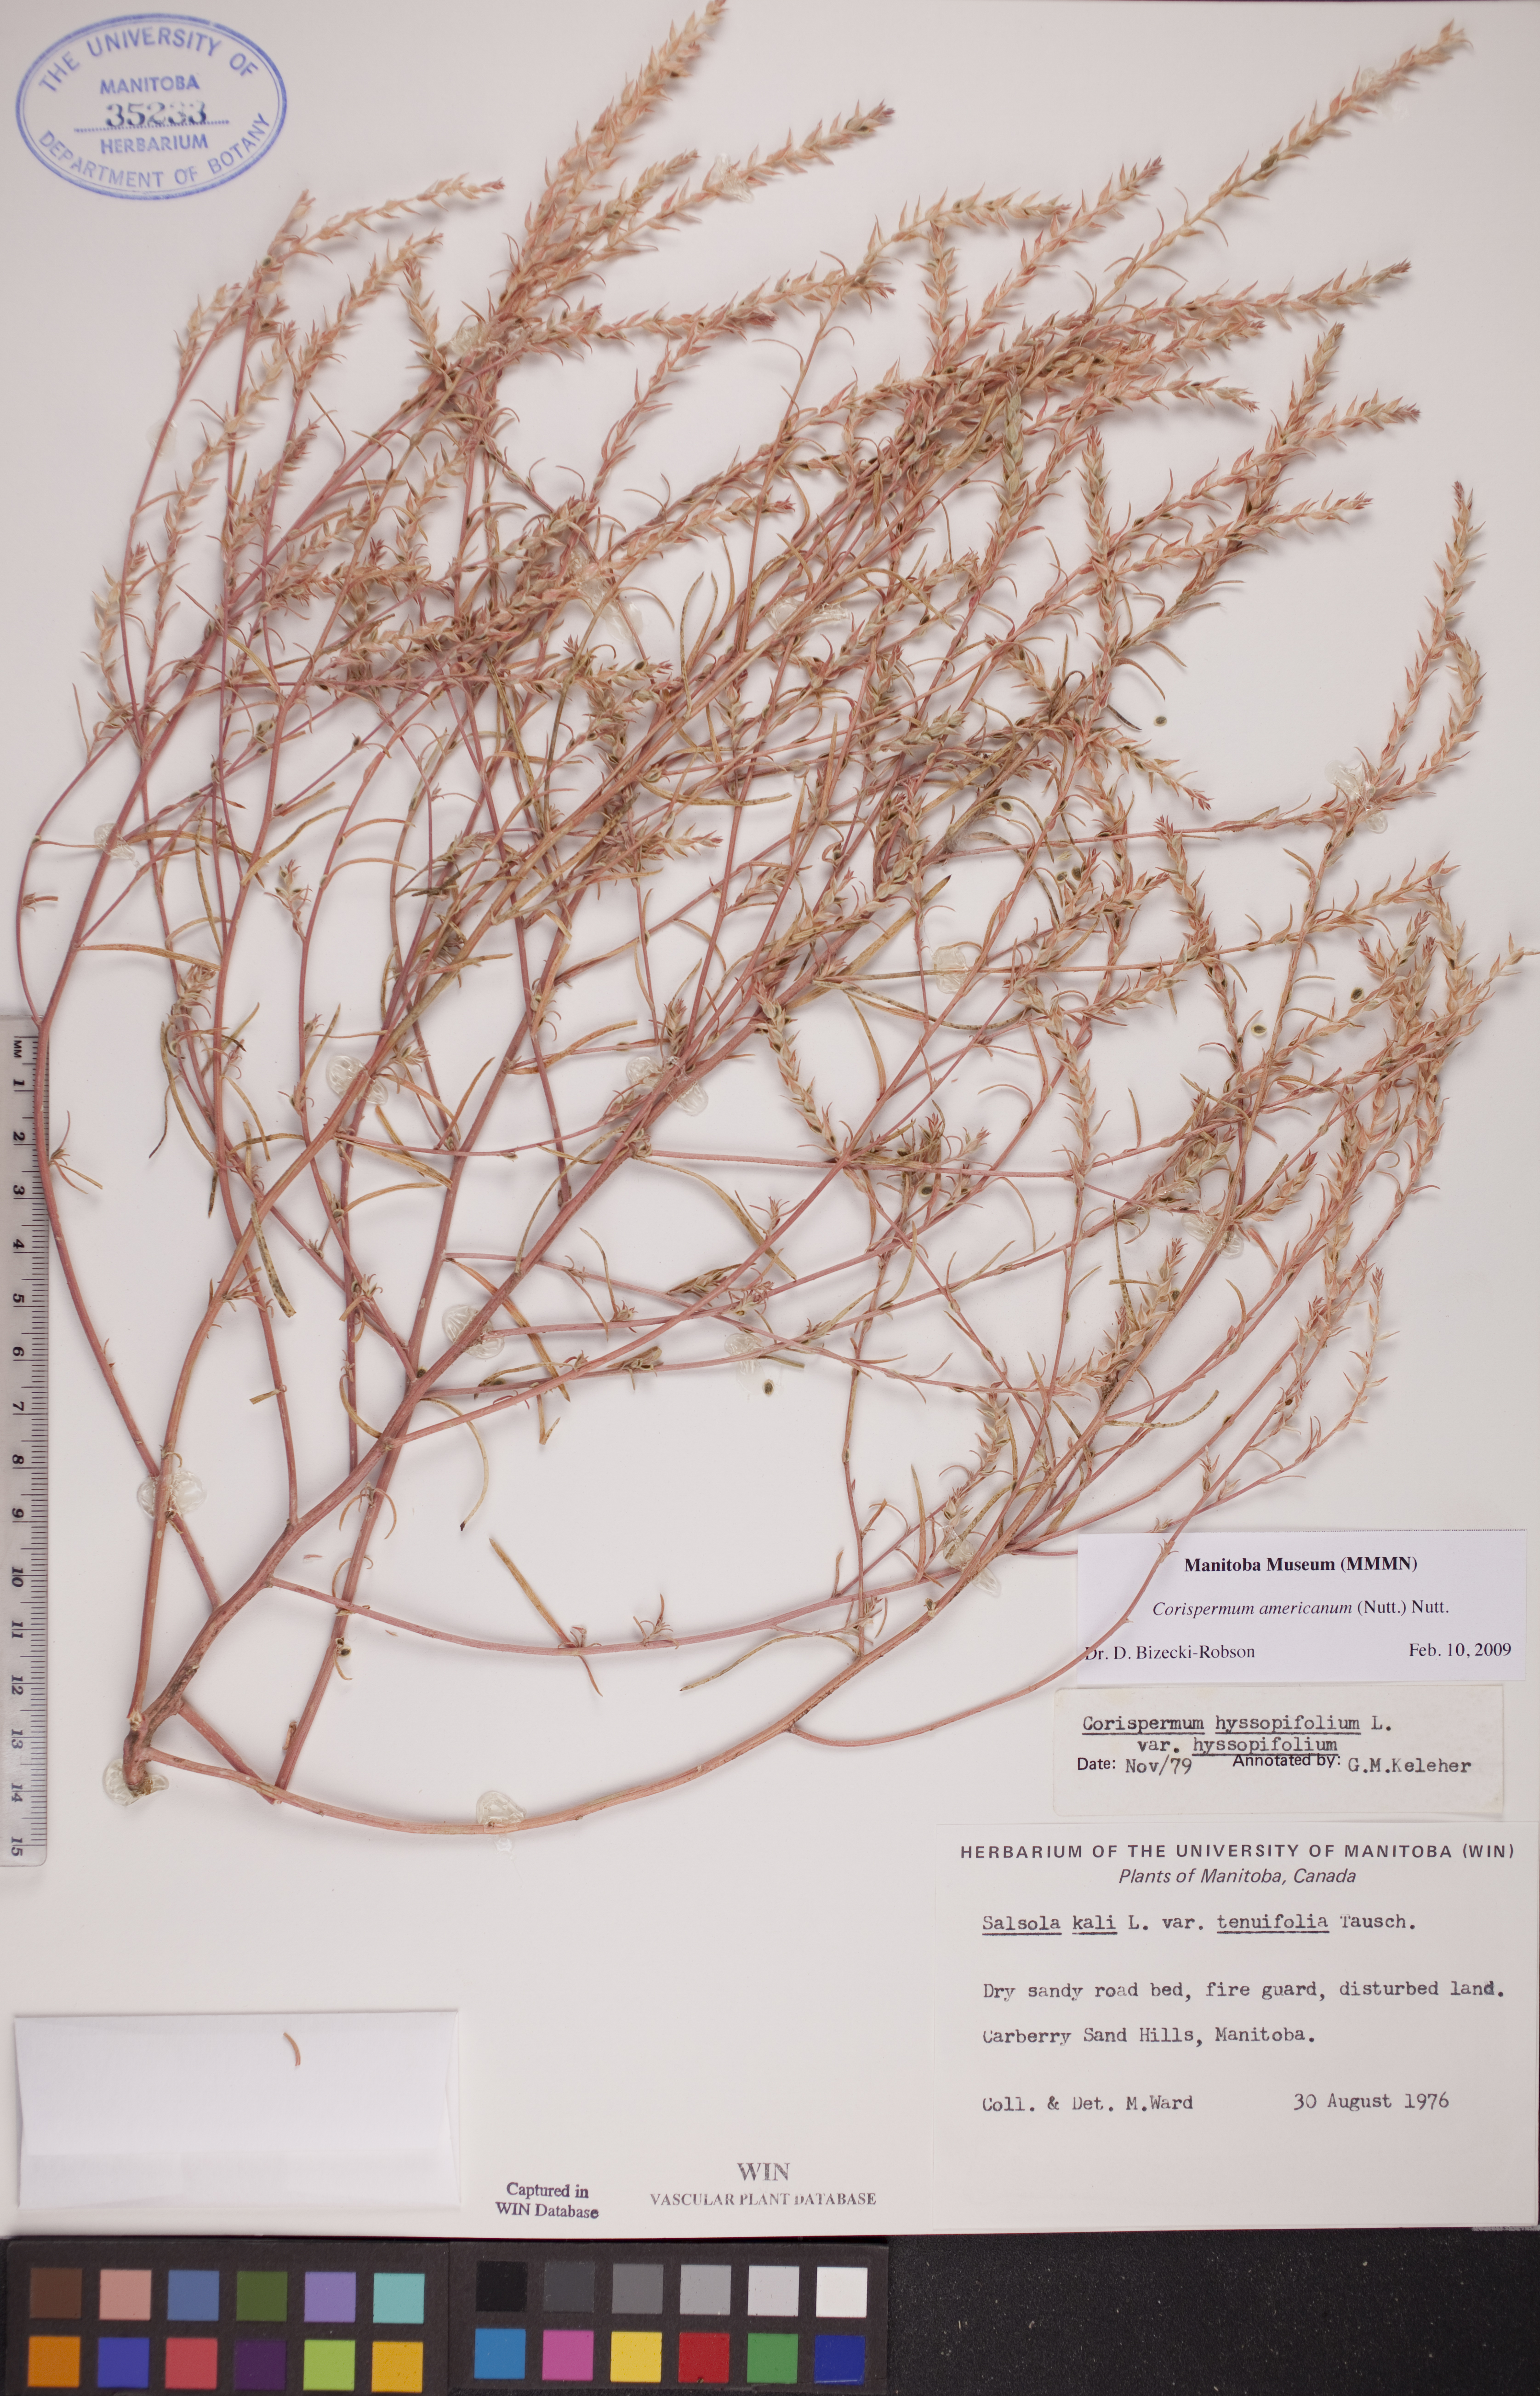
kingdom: Plantae
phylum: Tracheophyta
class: Magnoliopsida
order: Caryophyllales
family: Amaranthaceae
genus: Corispermum
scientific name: Corispermum americanum
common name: American bugseed
